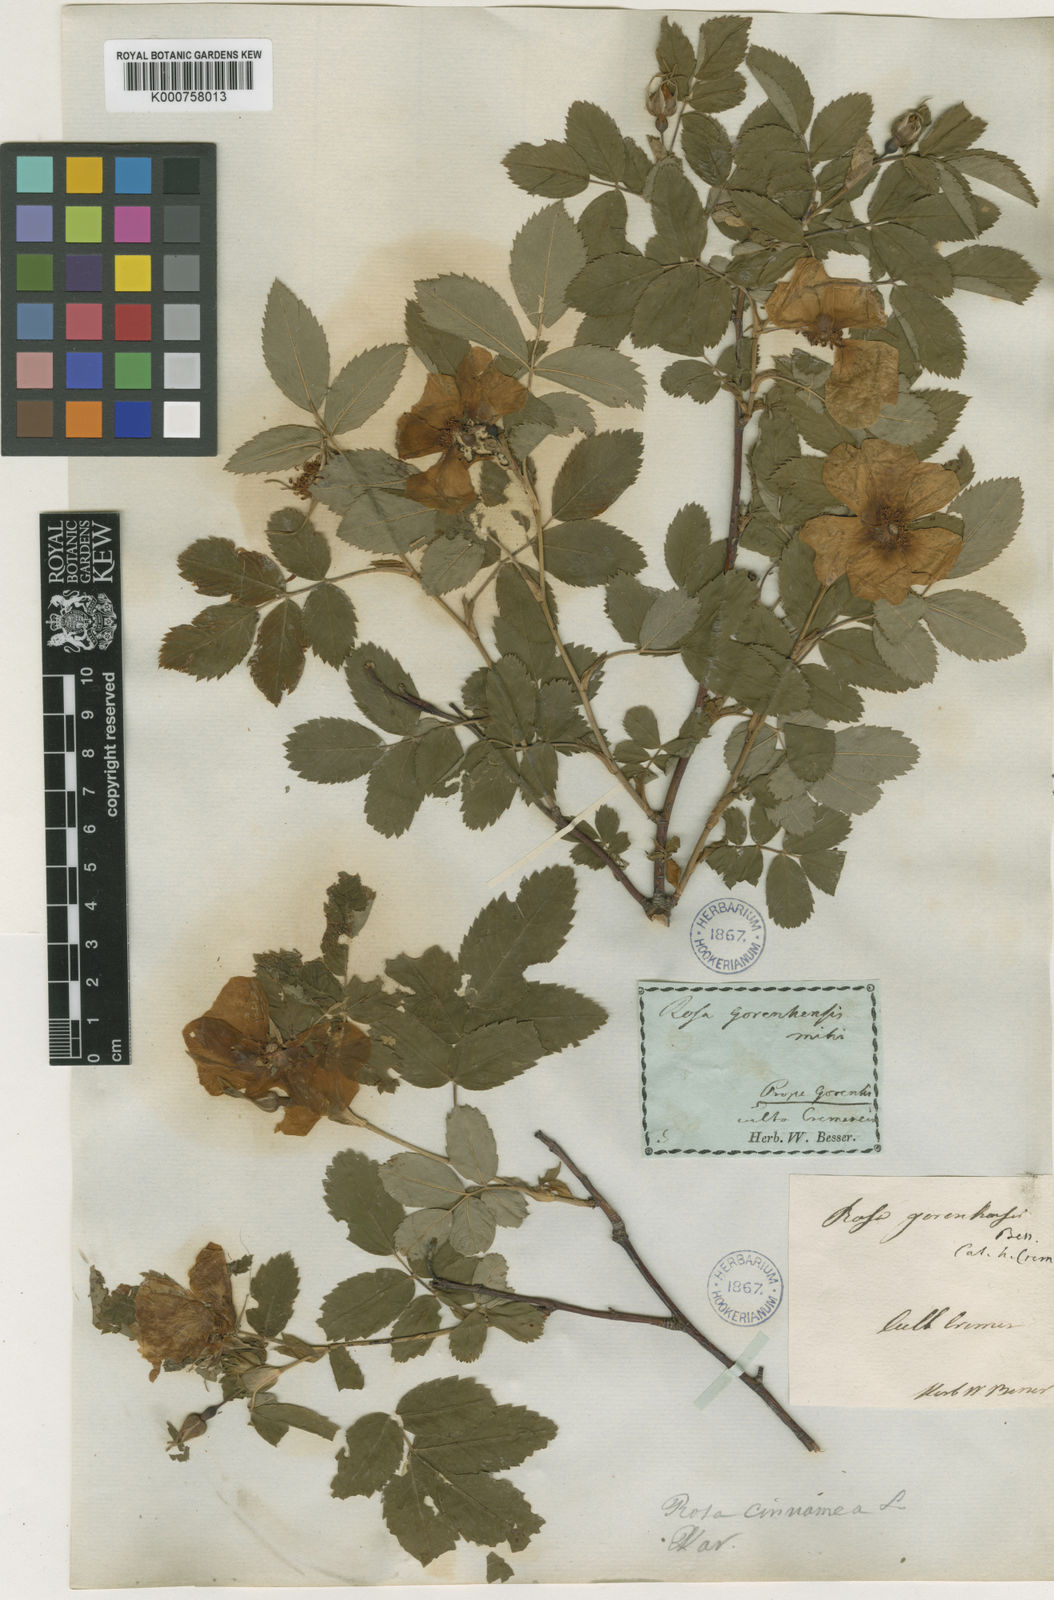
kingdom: Plantae
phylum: Tracheophyta
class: Magnoliopsida
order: Rosales
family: Rosaceae
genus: Rosa
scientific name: Rosa
